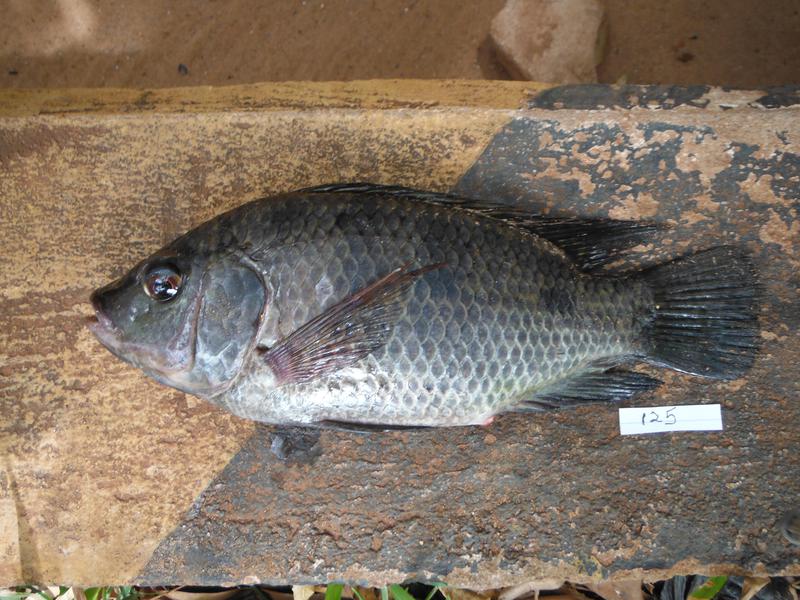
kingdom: Animalia
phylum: Chordata
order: Perciformes
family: Cichlidae
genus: Oreochromis
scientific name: Oreochromis urolepis
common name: Wami tilapia
